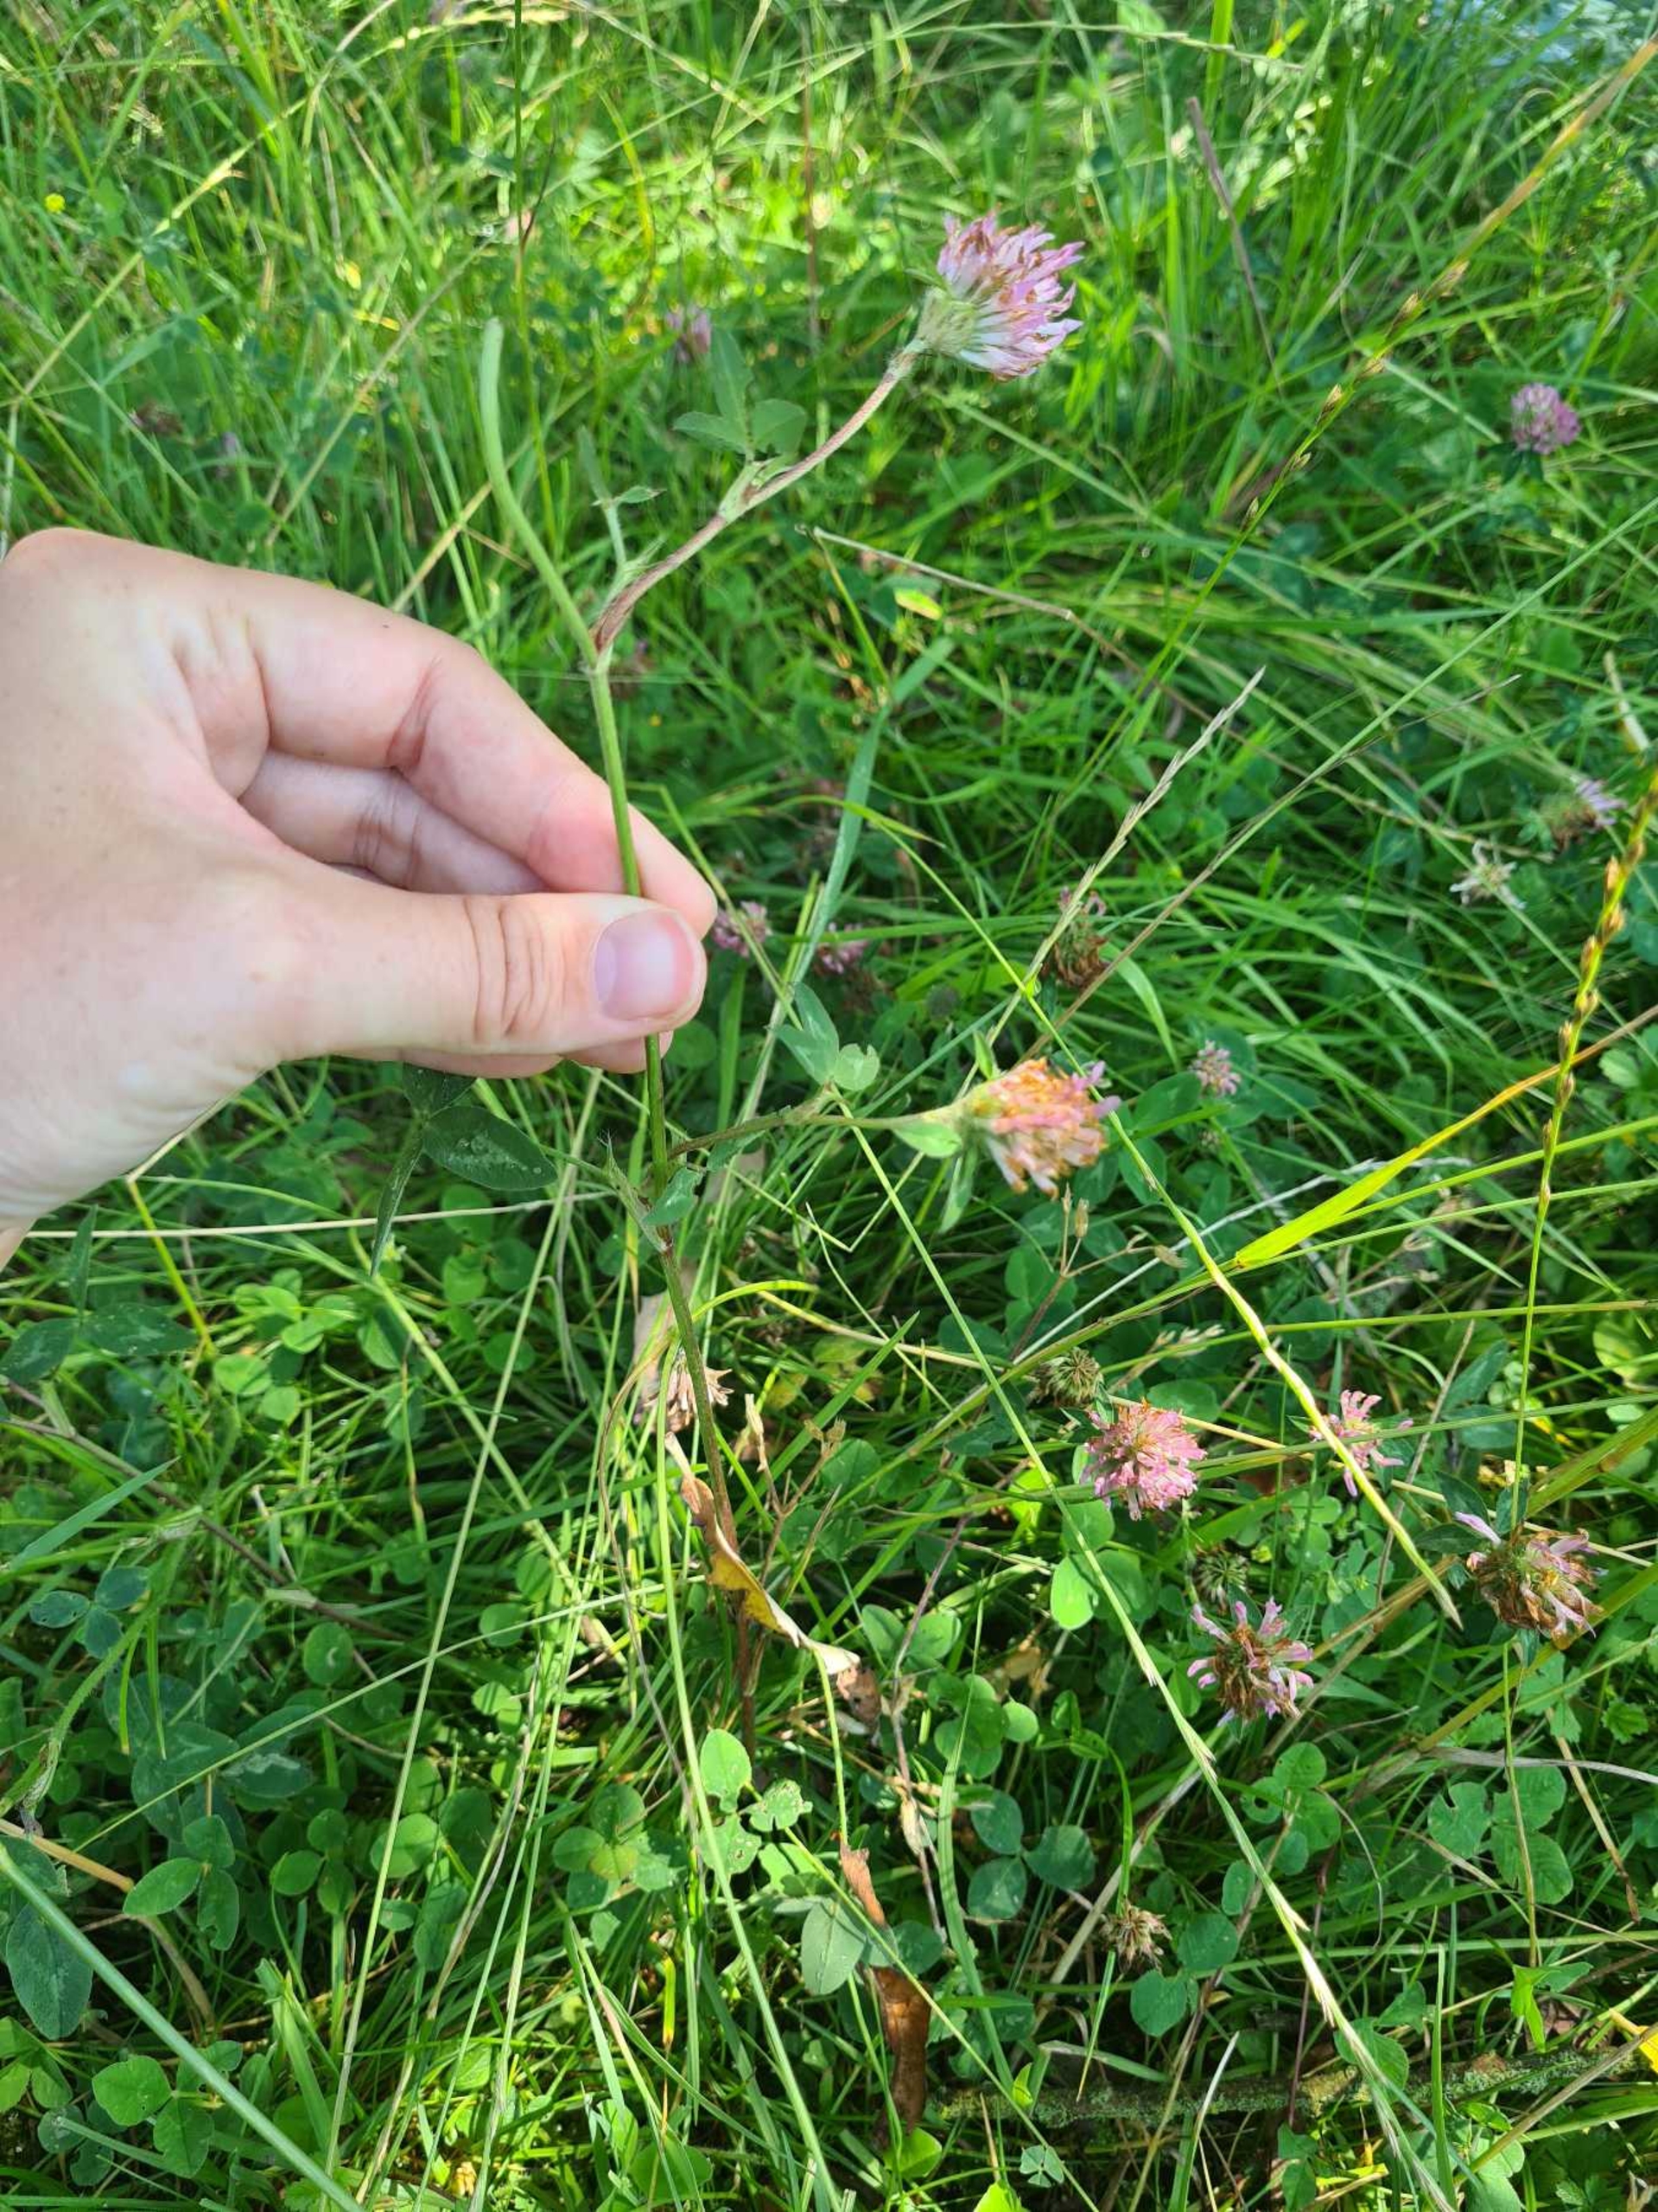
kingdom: Plantae
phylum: Tracheophyta
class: Magnoliopsida
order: Fabales
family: Fabaceae
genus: Trifolium
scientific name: Trifolium medium
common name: Bugtet kløver
